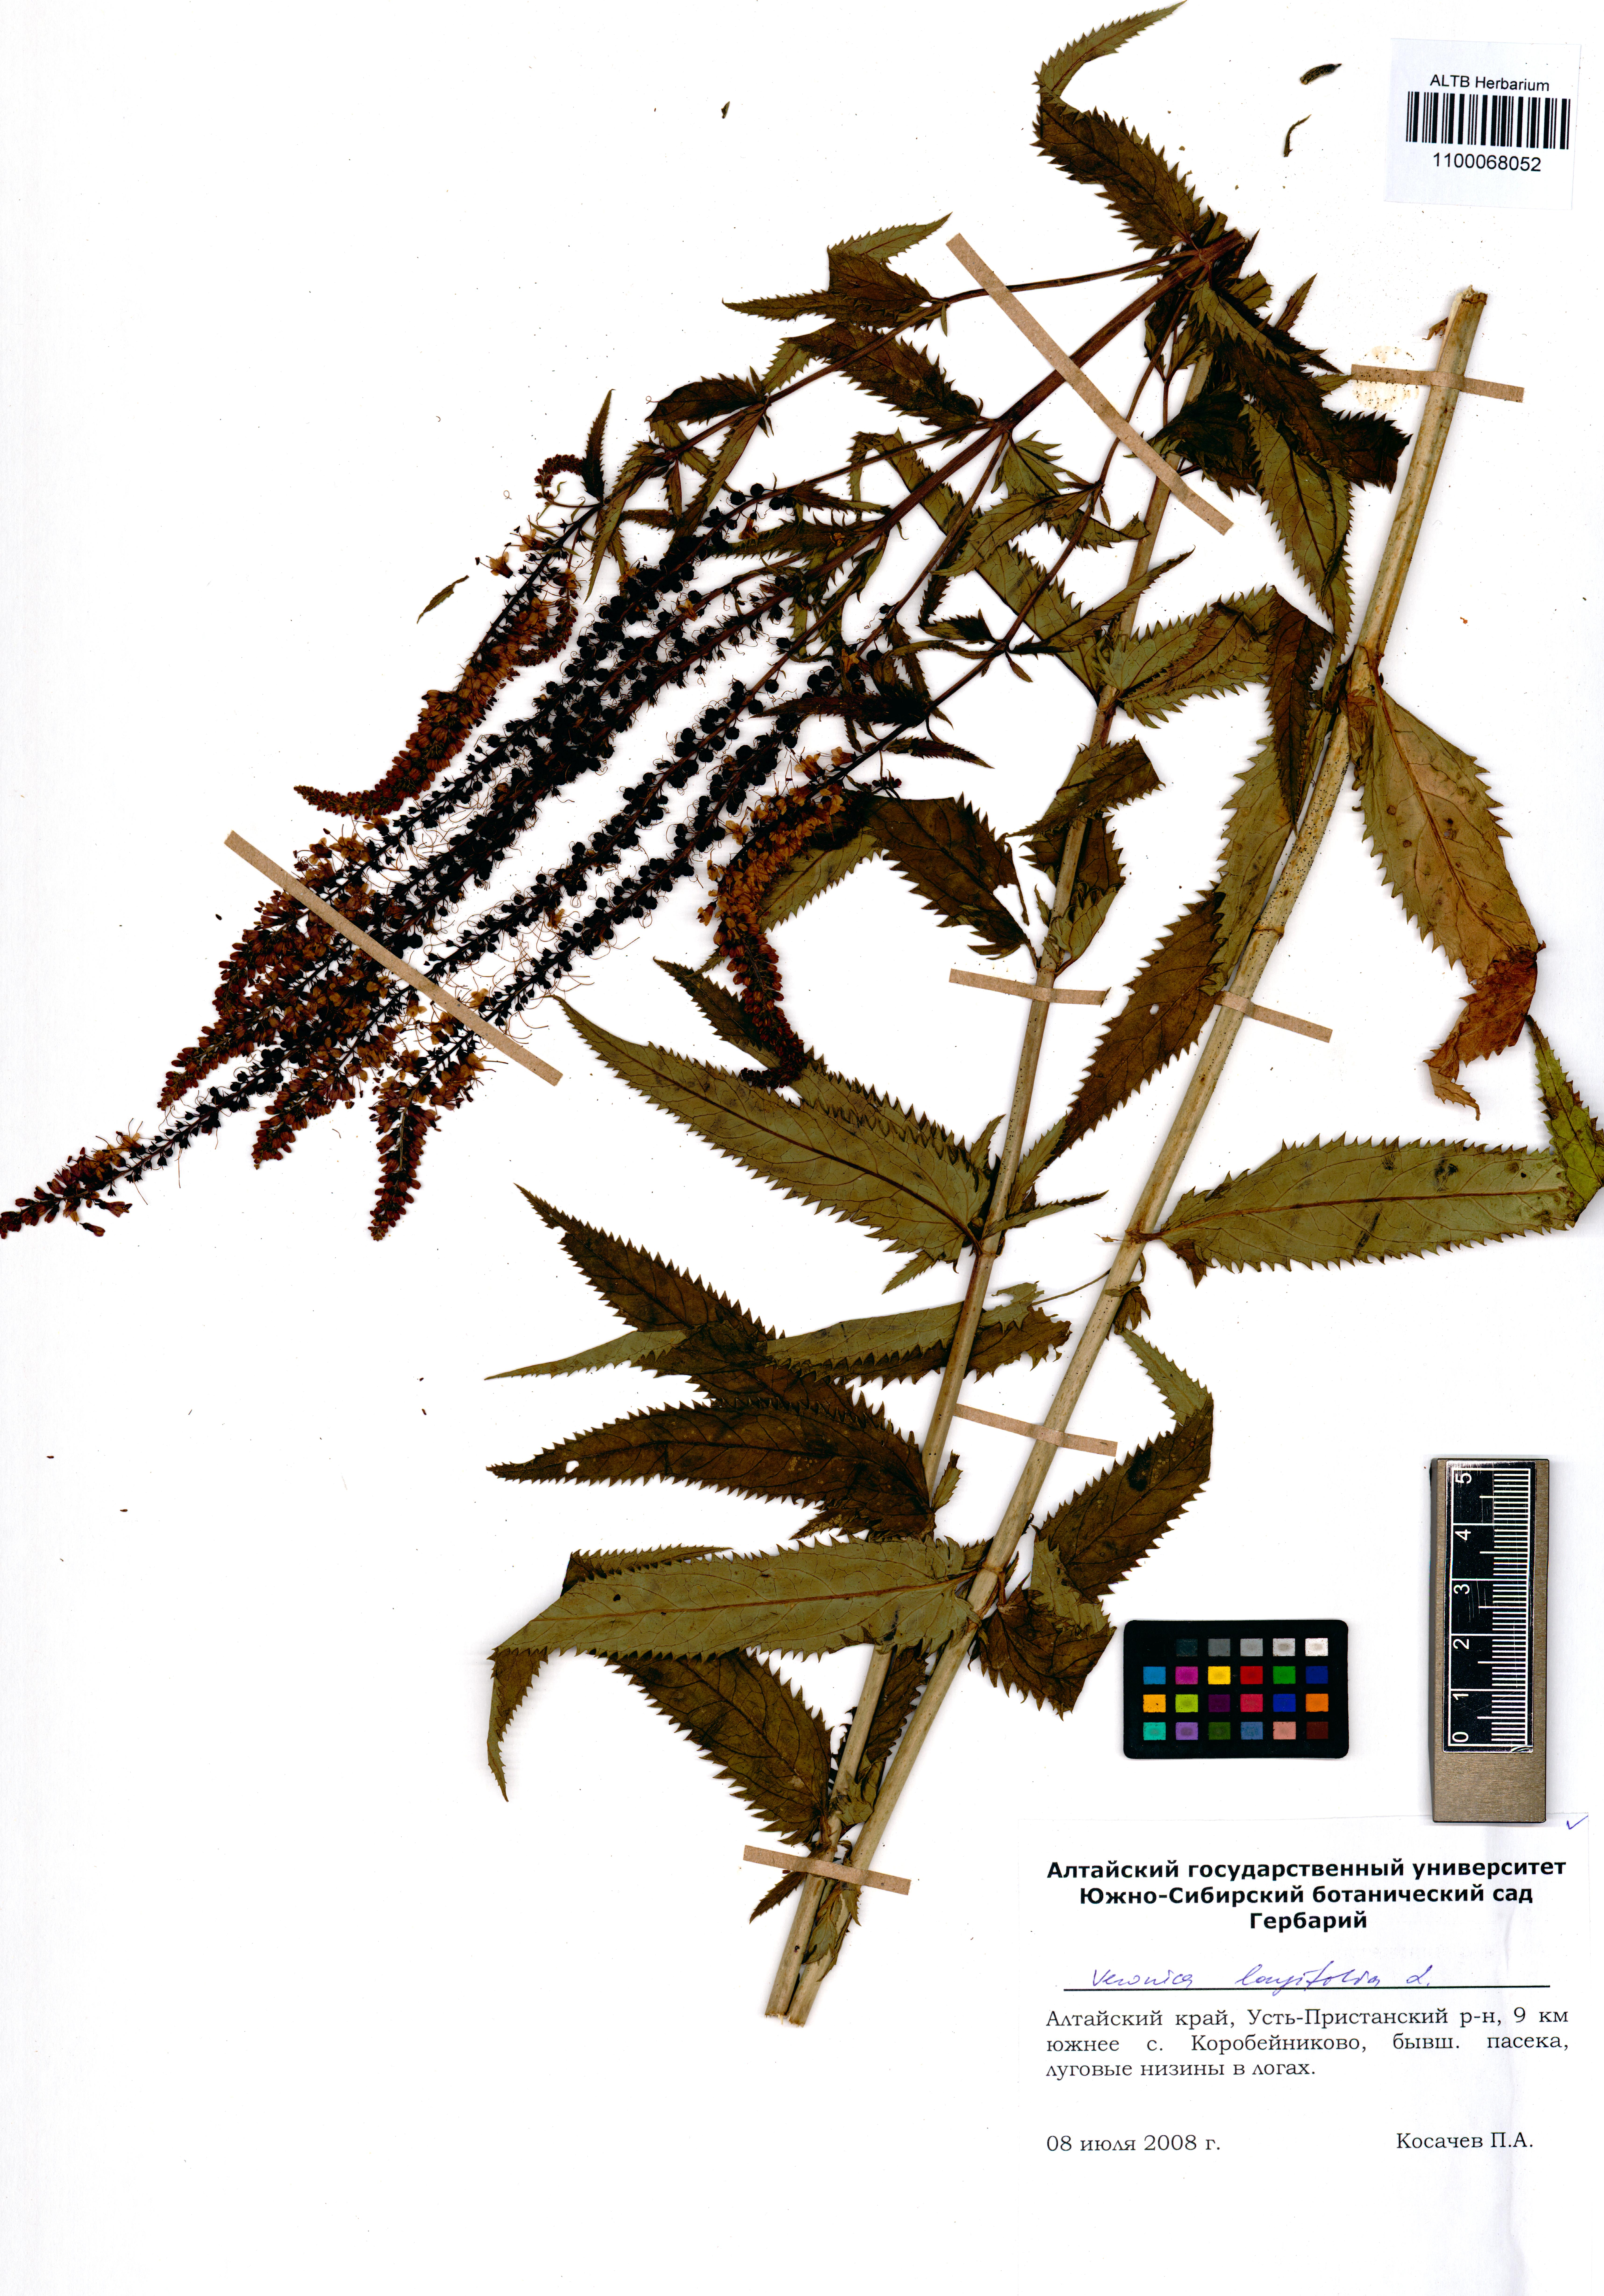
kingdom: Plantae
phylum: Tracheophyta
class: Magnoliopsida
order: Lamiales
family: Plantaginaceae
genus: Veronica
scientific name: Veronica longifolia
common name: Garden speedwell
